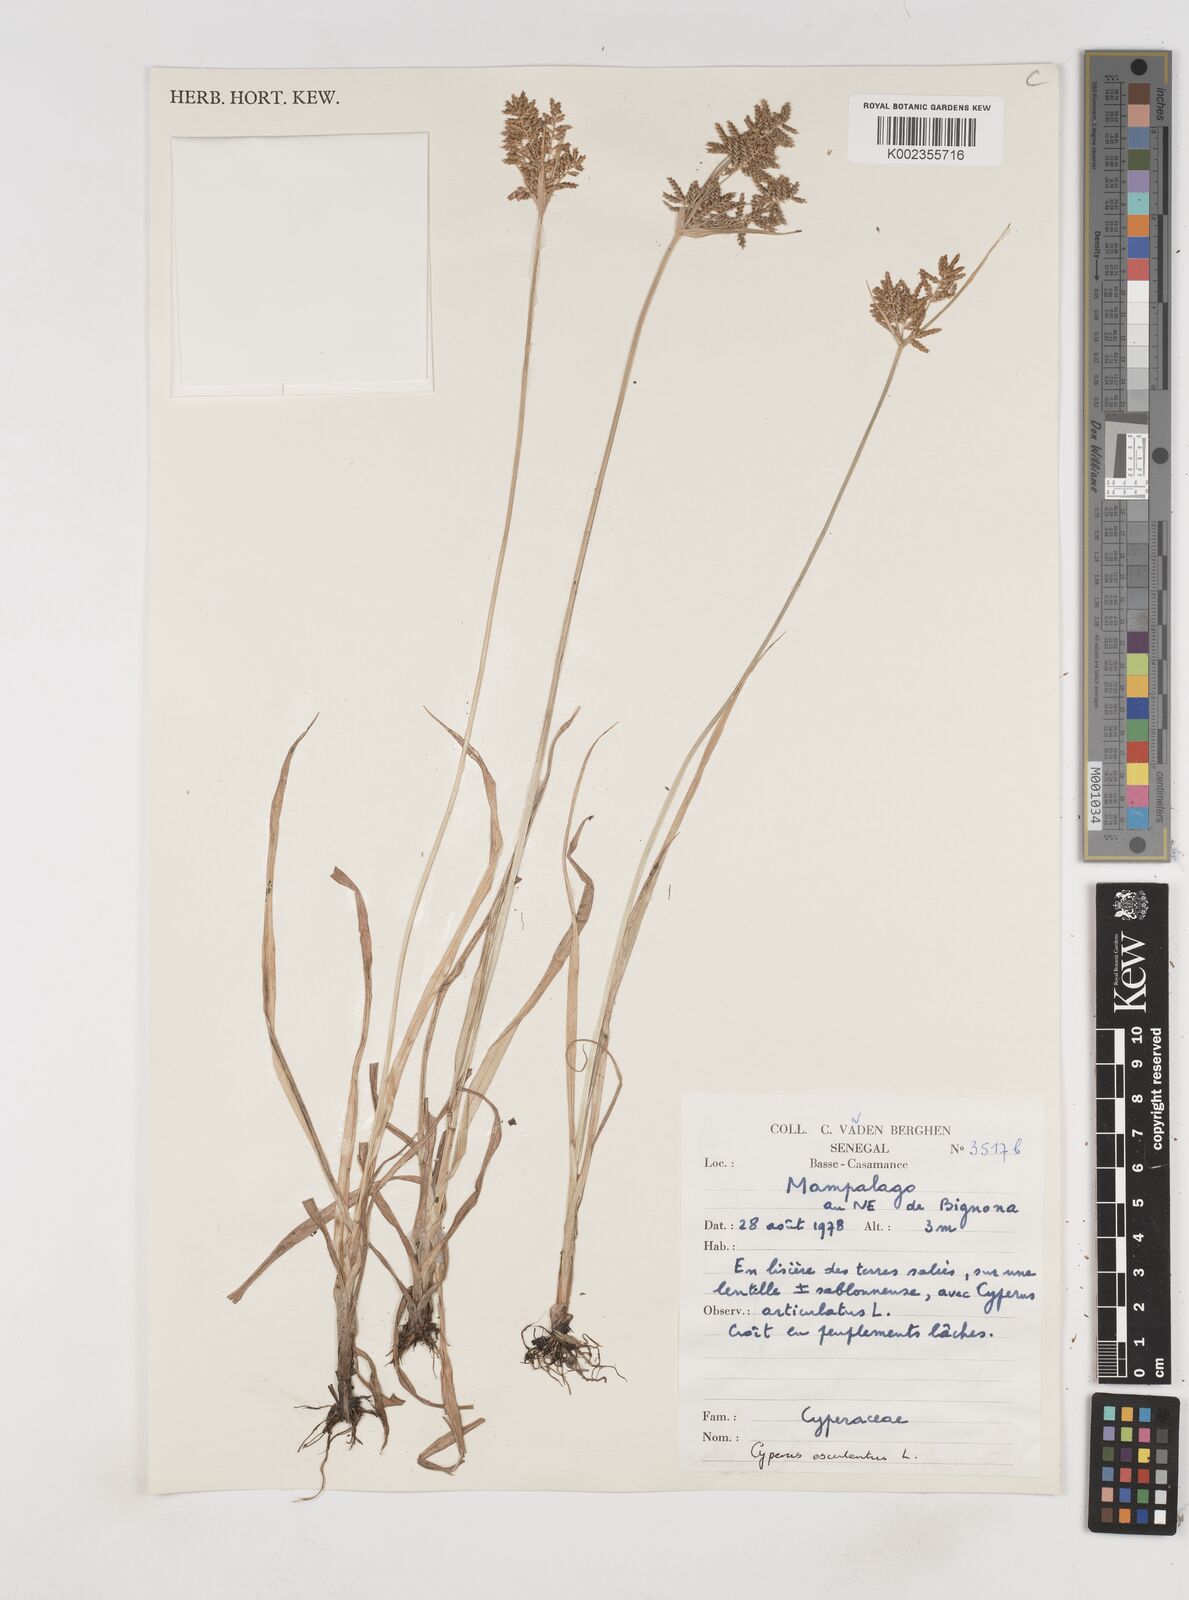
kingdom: Plantae
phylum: Tracheophyta
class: Liliopsida
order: Poales
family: Cyperaceae
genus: Cyperus
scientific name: Cyperus esculentus
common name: Yellow nutsedge
